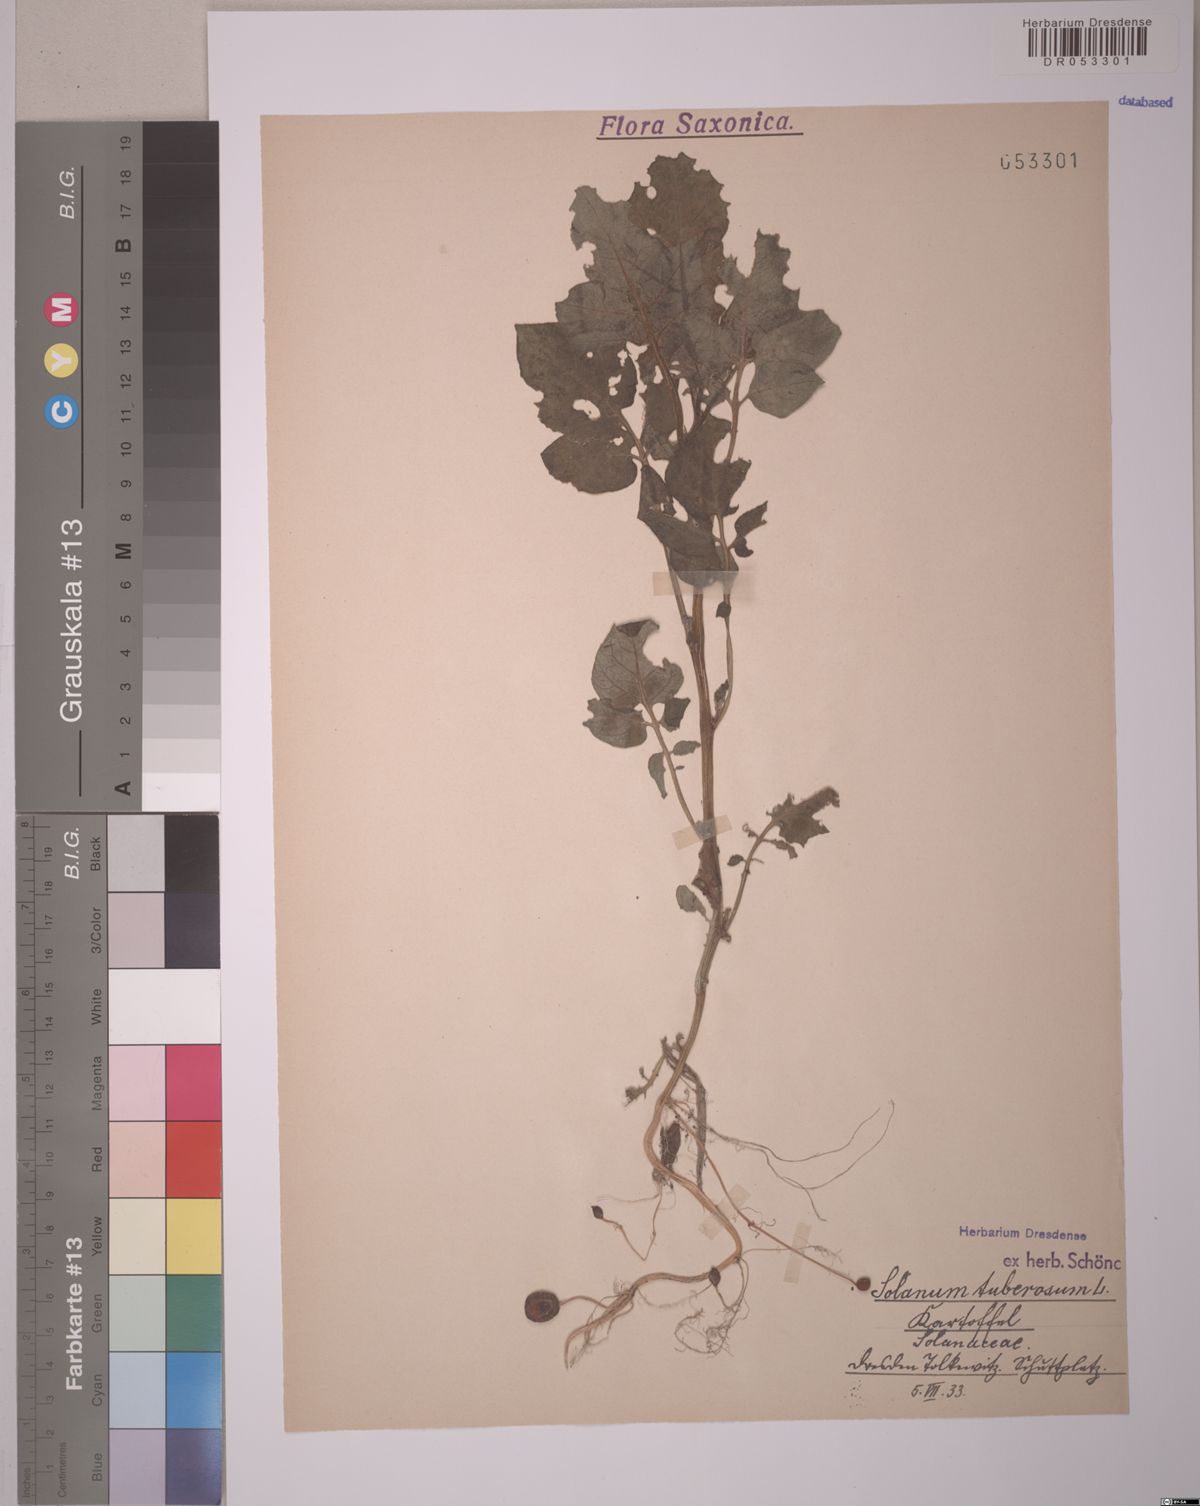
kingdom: Plantae
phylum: Tracheophyta
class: Magnoliopsida
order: Solanales
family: Solanaceae
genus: Solanum
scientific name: Solanum tuberosum
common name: Potato
